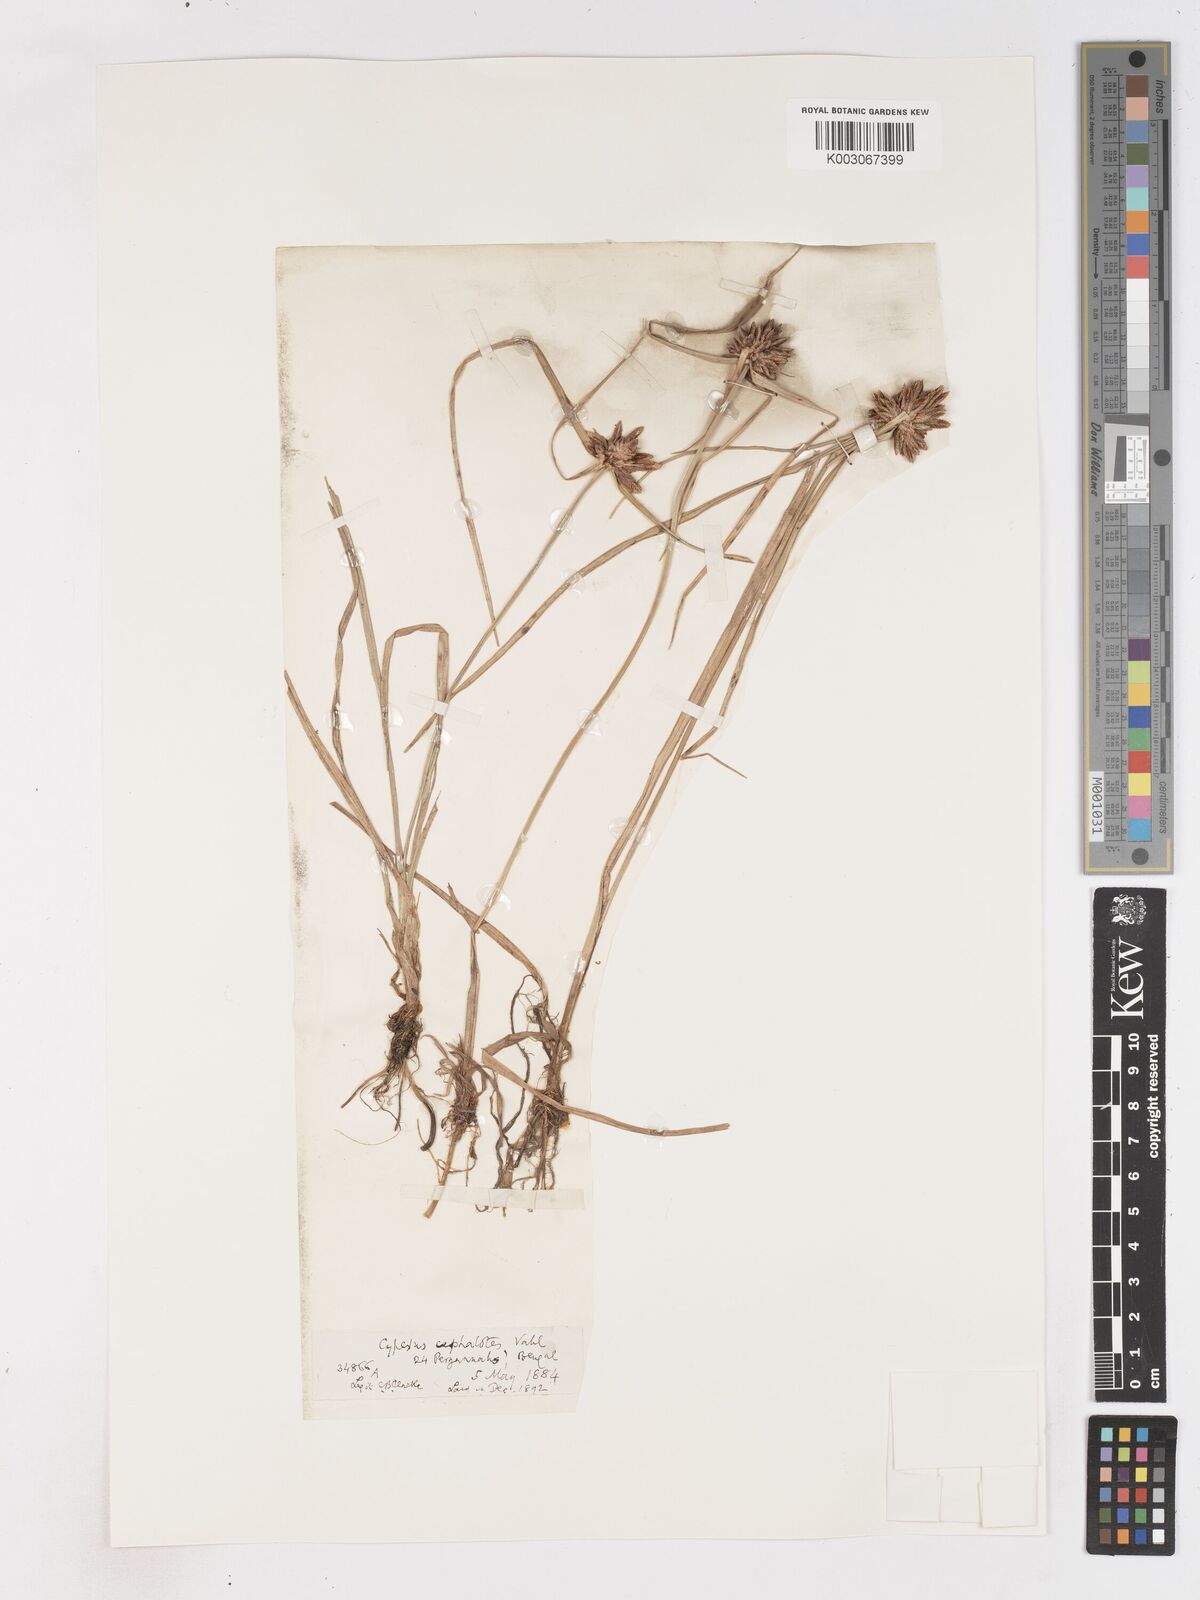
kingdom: Plantae
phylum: Tracheophyta
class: Liliopsida
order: Poales
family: Cyperaceae
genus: Cyperus
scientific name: Cyperus cephalotes
